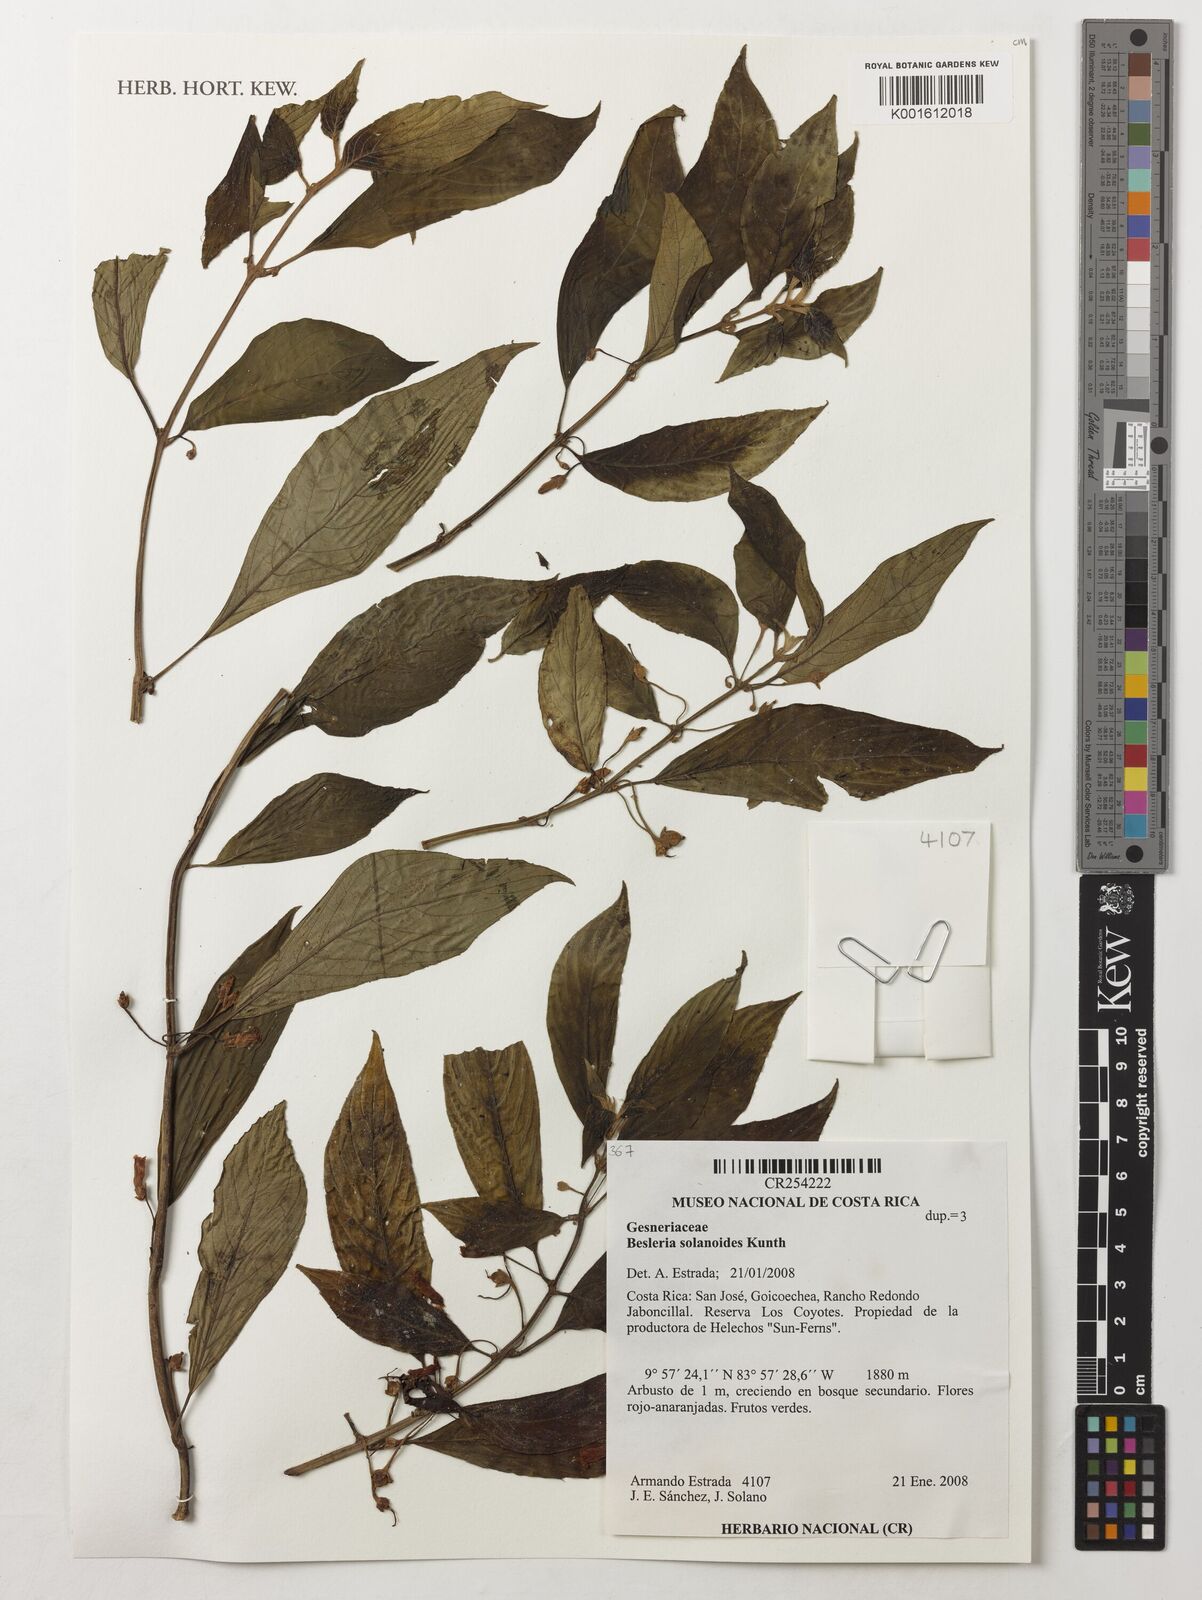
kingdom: Plantae
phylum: Tracheophyta
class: Magnoliopsida
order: Lamiales
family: Gesneriaceae
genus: Besleria
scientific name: Besleria solanoides
